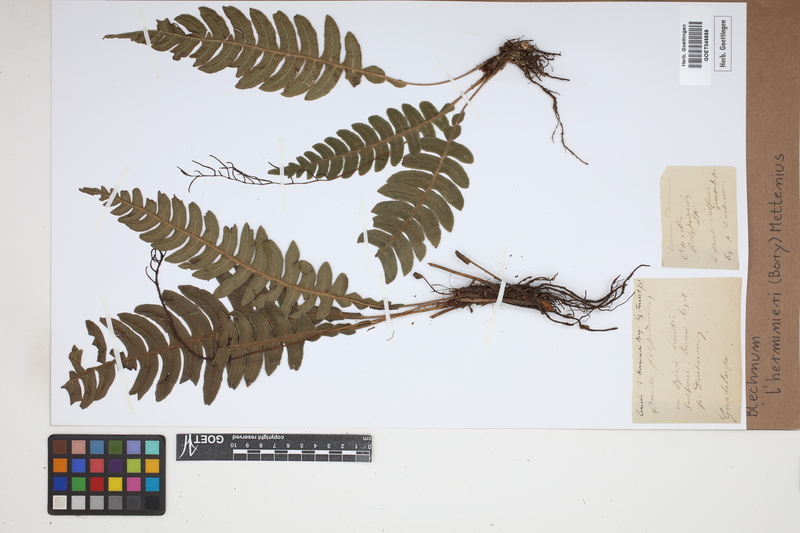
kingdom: Plantae
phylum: Tracheophyta
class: Polypodiopsida
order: Polypodiales
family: Blechnaceae
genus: Austroblechnum
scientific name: Austroblechnum lherminieri
